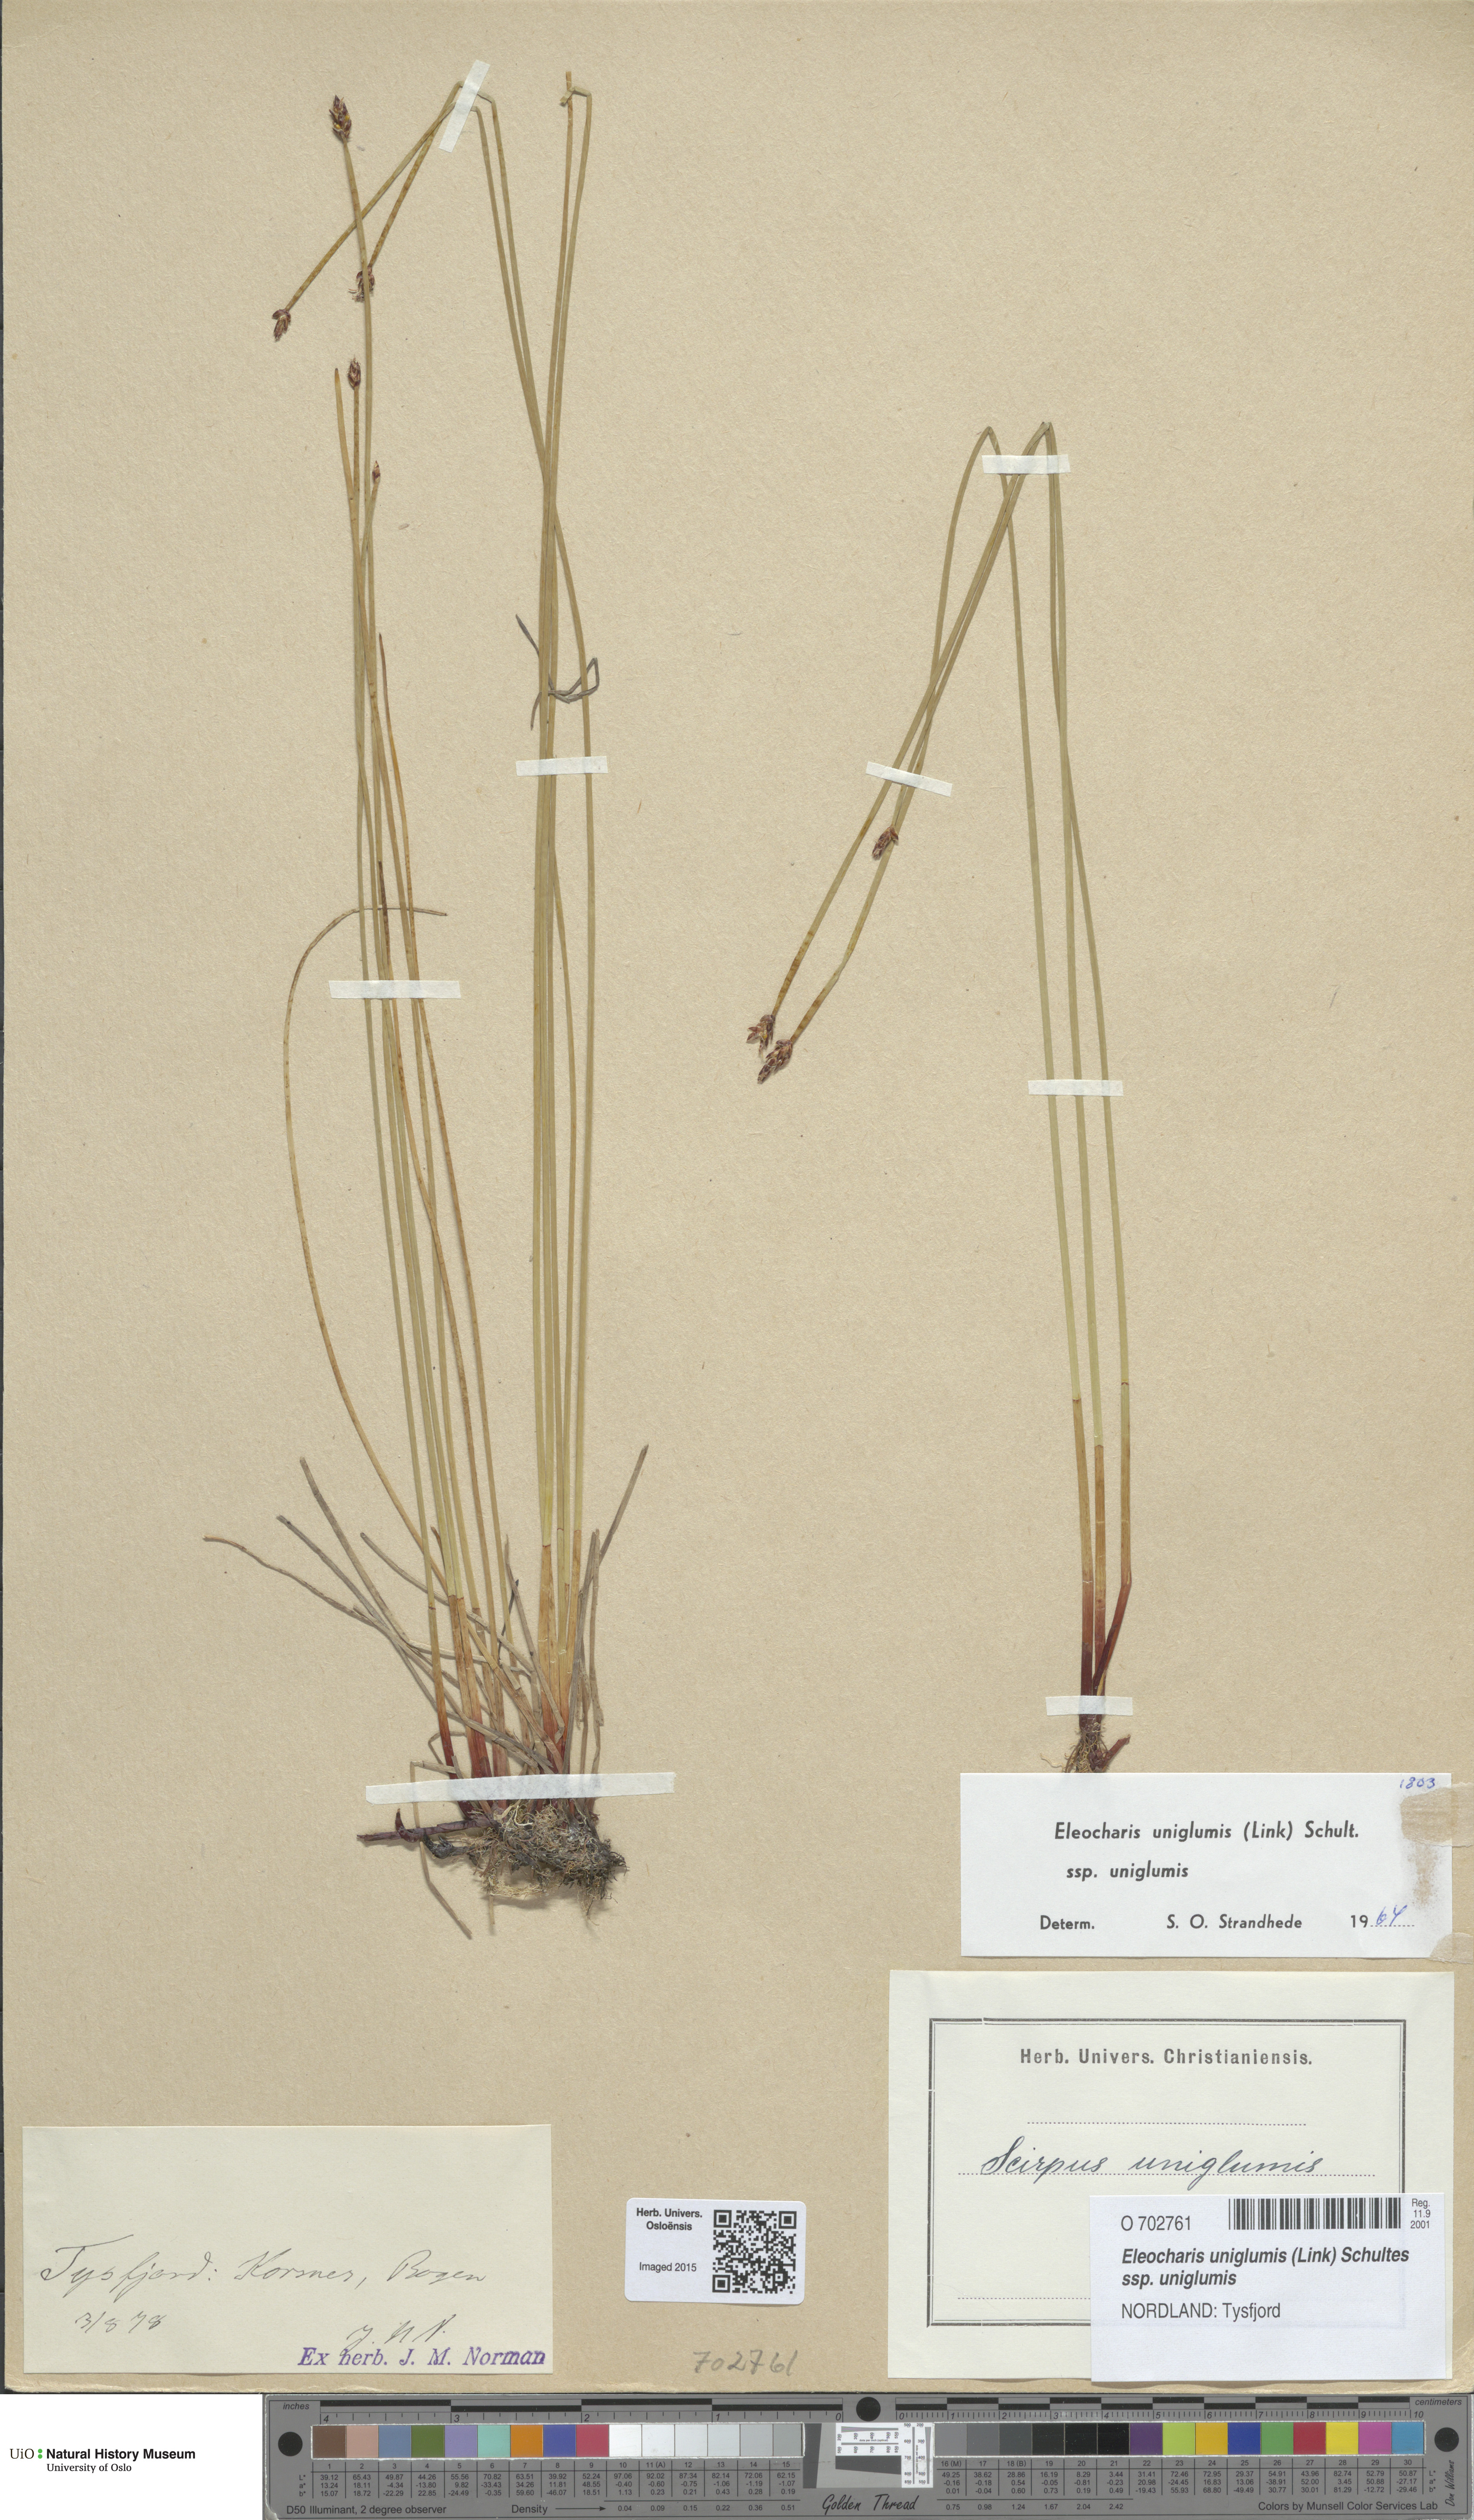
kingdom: Plantae
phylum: Tracheophyta
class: Liliopsida
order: Poales
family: Cyperaceae
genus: Eleocharis
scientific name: Eleocharis uniglumis
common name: Slender spike-rush
